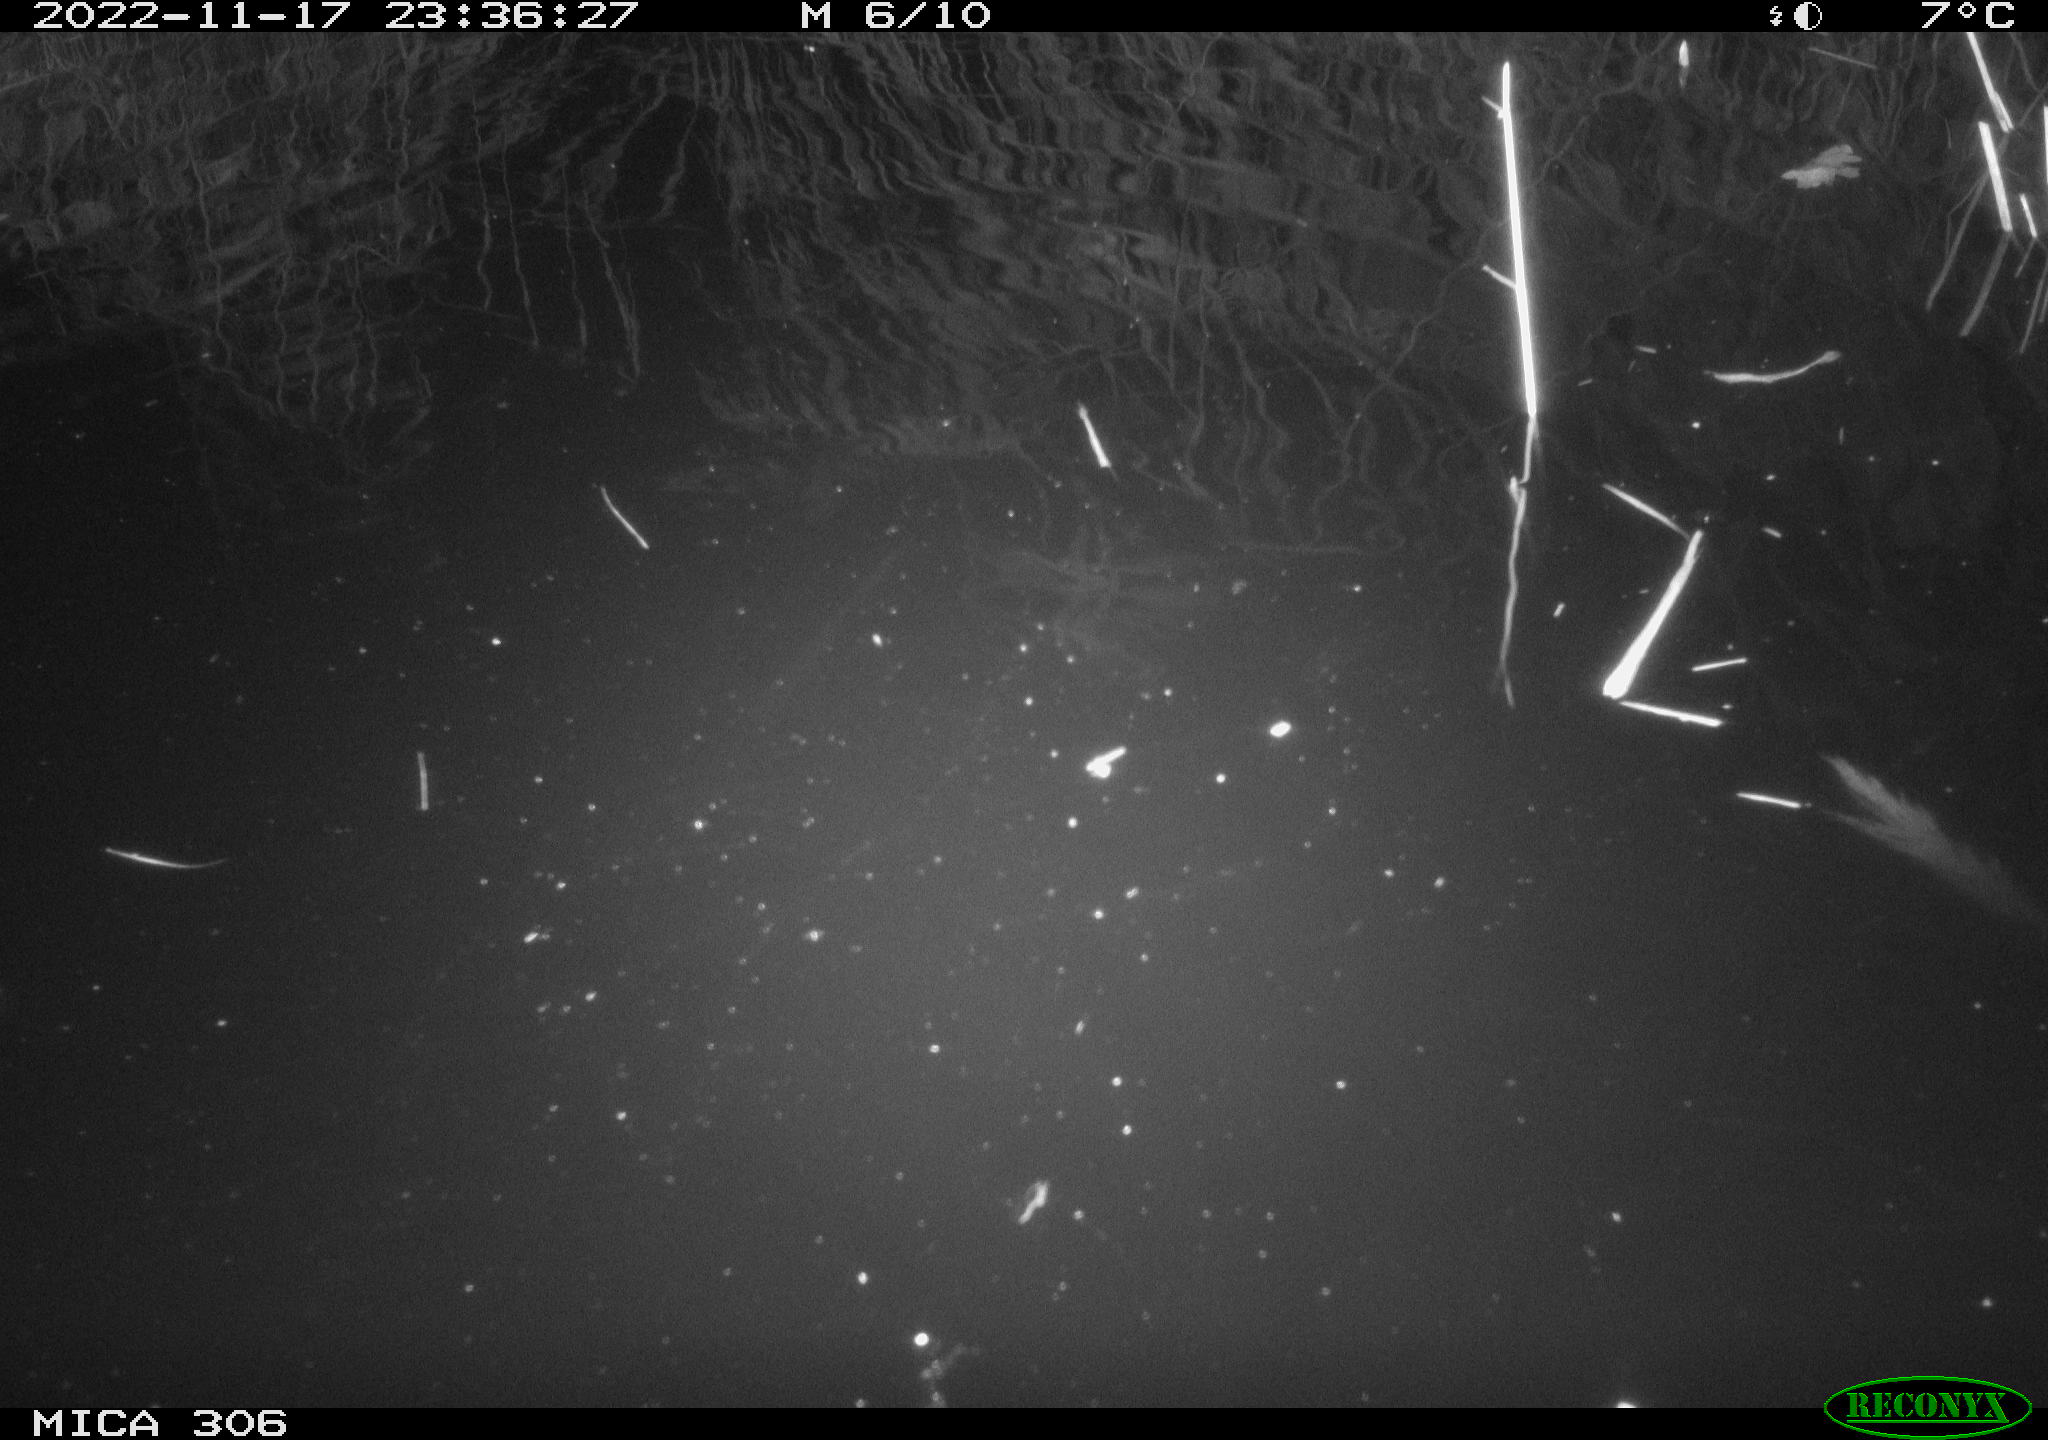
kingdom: Animalia
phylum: Chordata
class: Mammalia
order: Rodentia
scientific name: Rodentia
